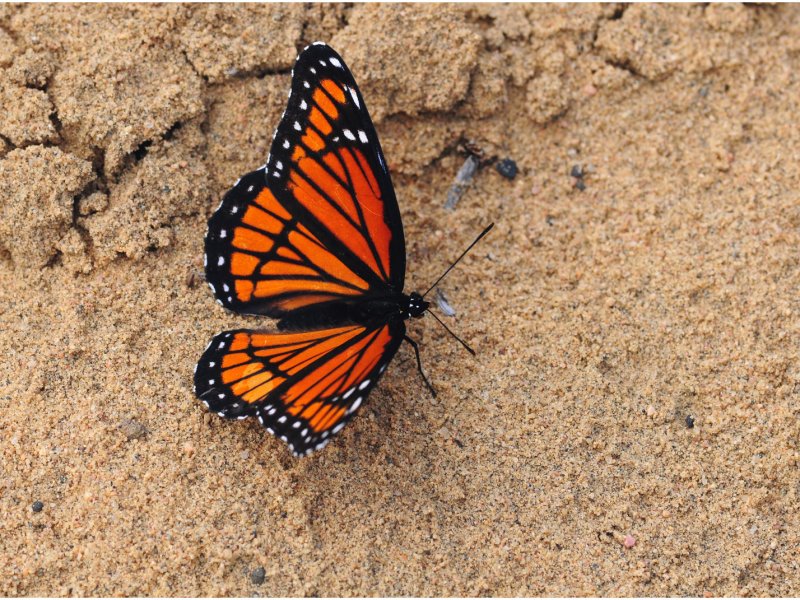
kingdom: Animalia
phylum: Arthropoda
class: Insecta
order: Lepidoptera
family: Nymphalidae
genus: Limenitis
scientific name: Limenitis archippus
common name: Viceroy
